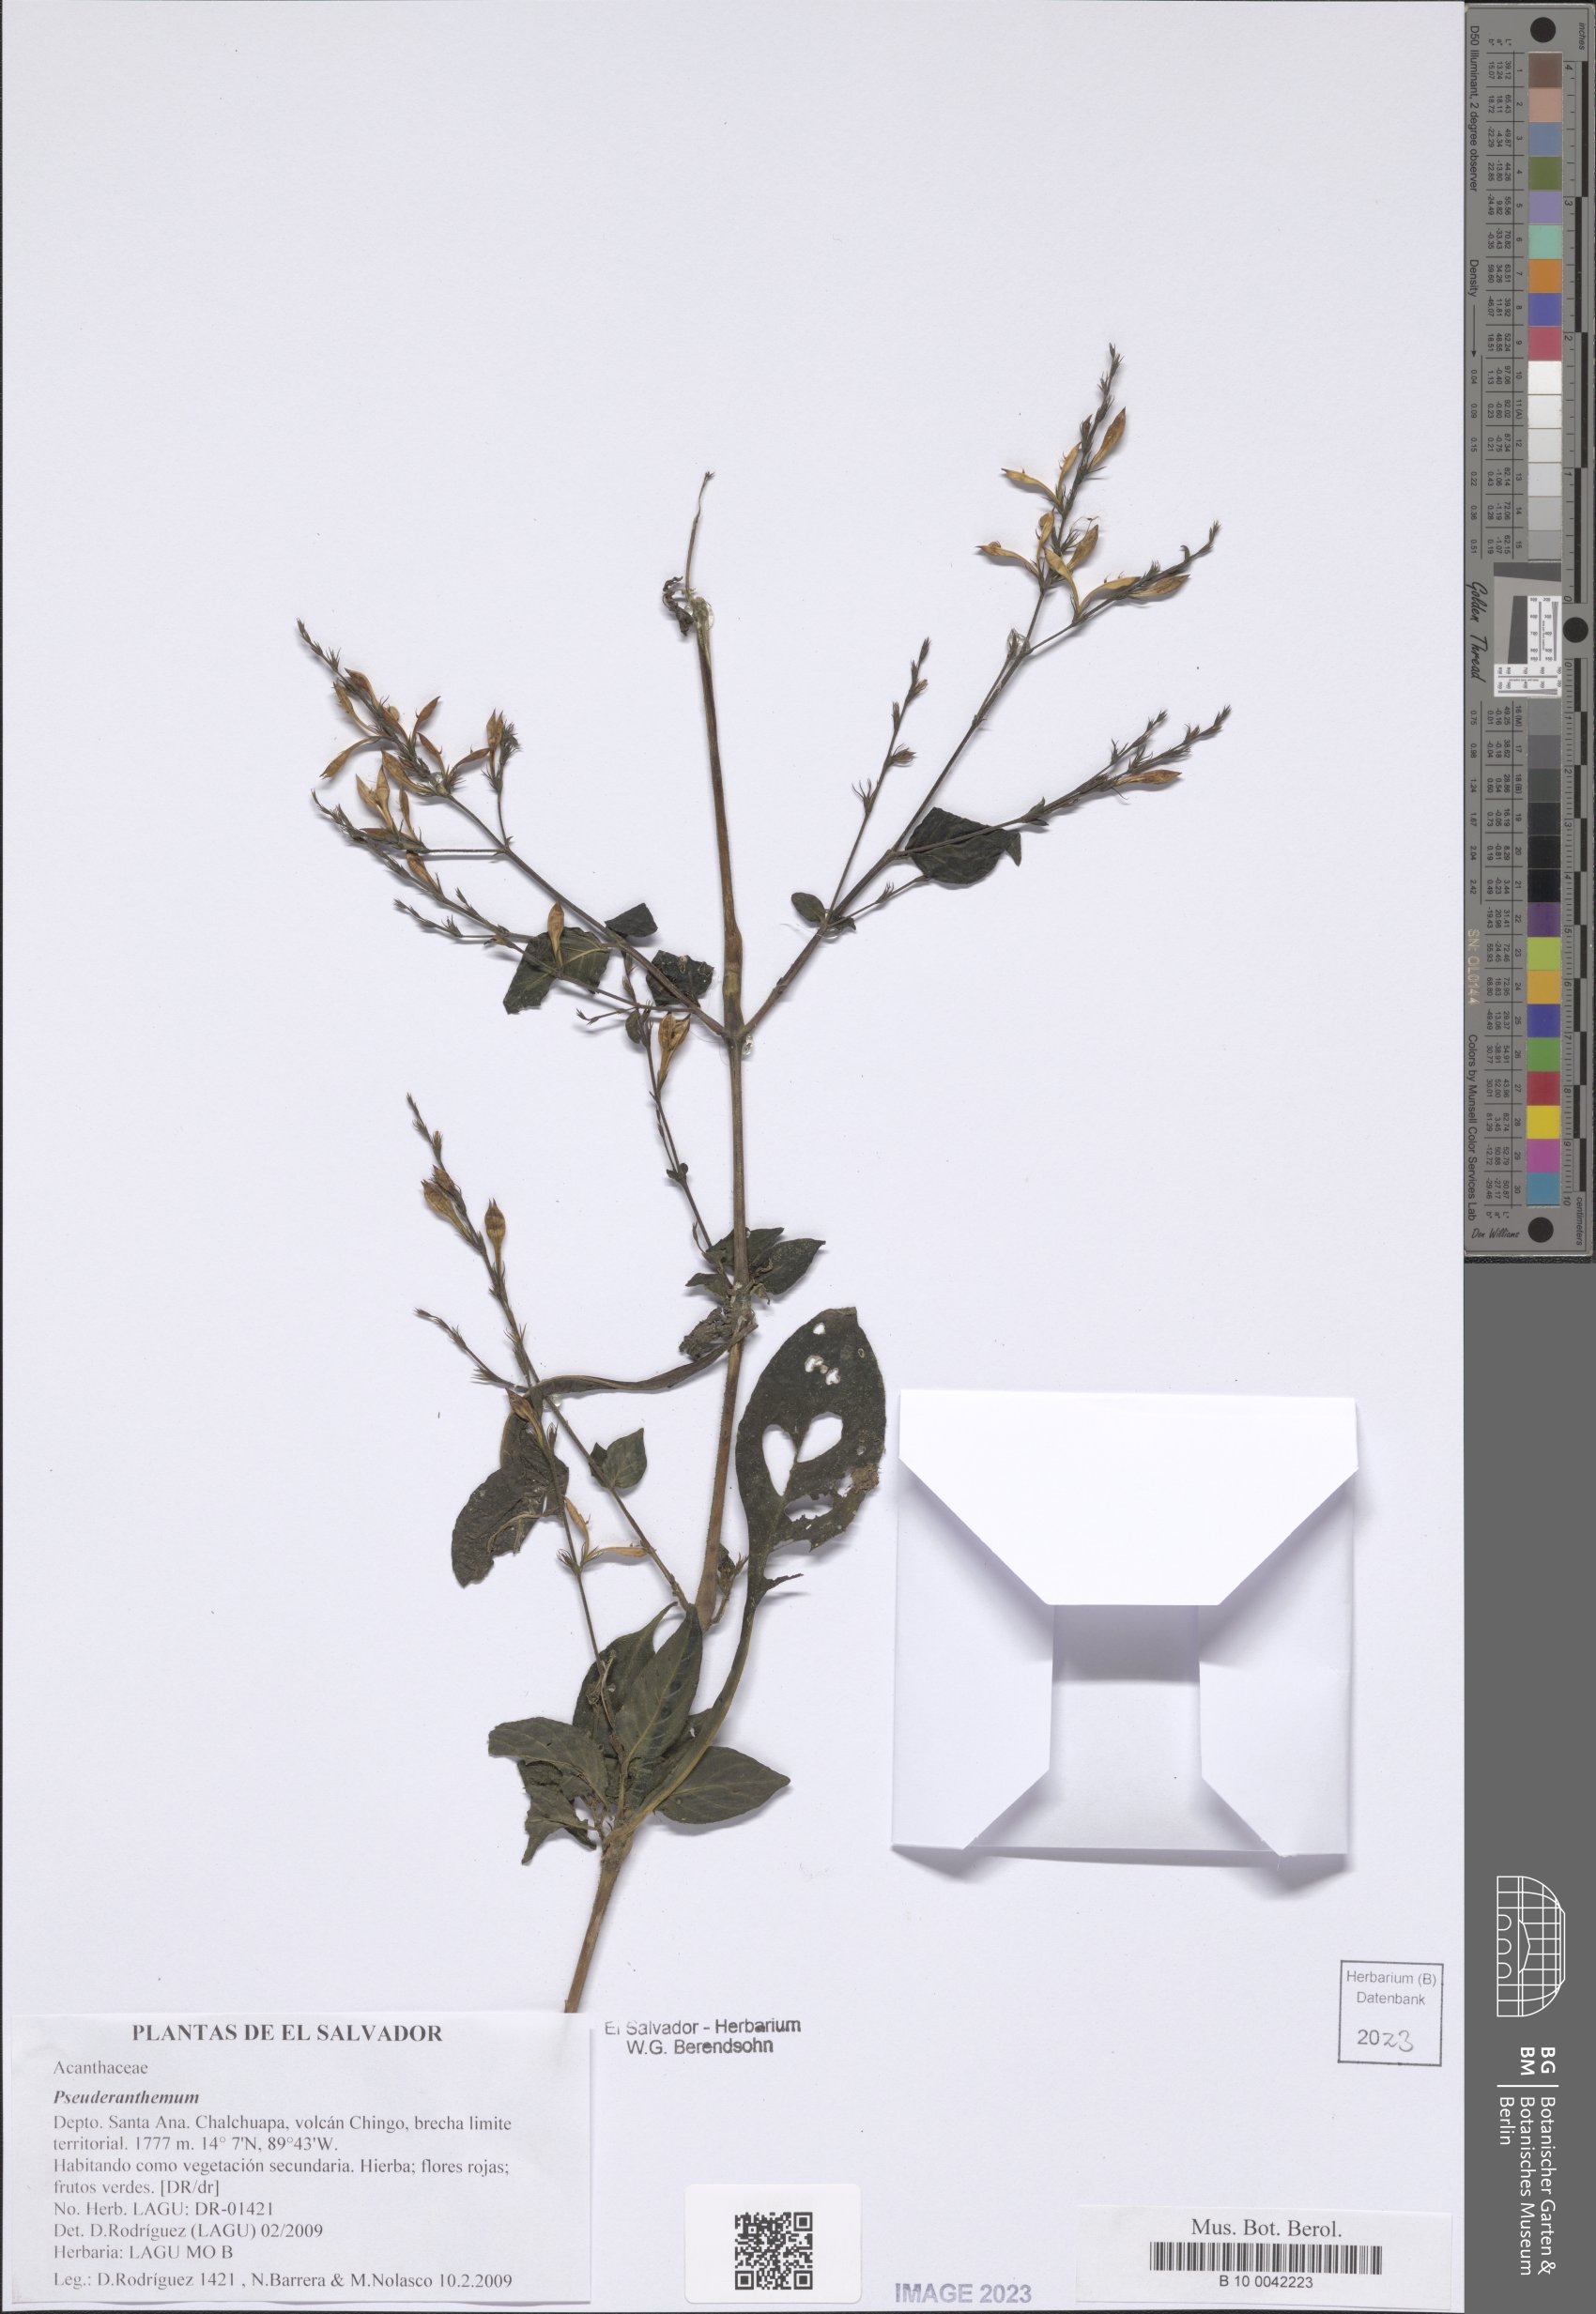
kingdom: Plantae
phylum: Tracheophyta
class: Magnoliopsida
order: Lamiales
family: Acanthaceae
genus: Pseuderanthemum
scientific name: Pseuderanthemum
